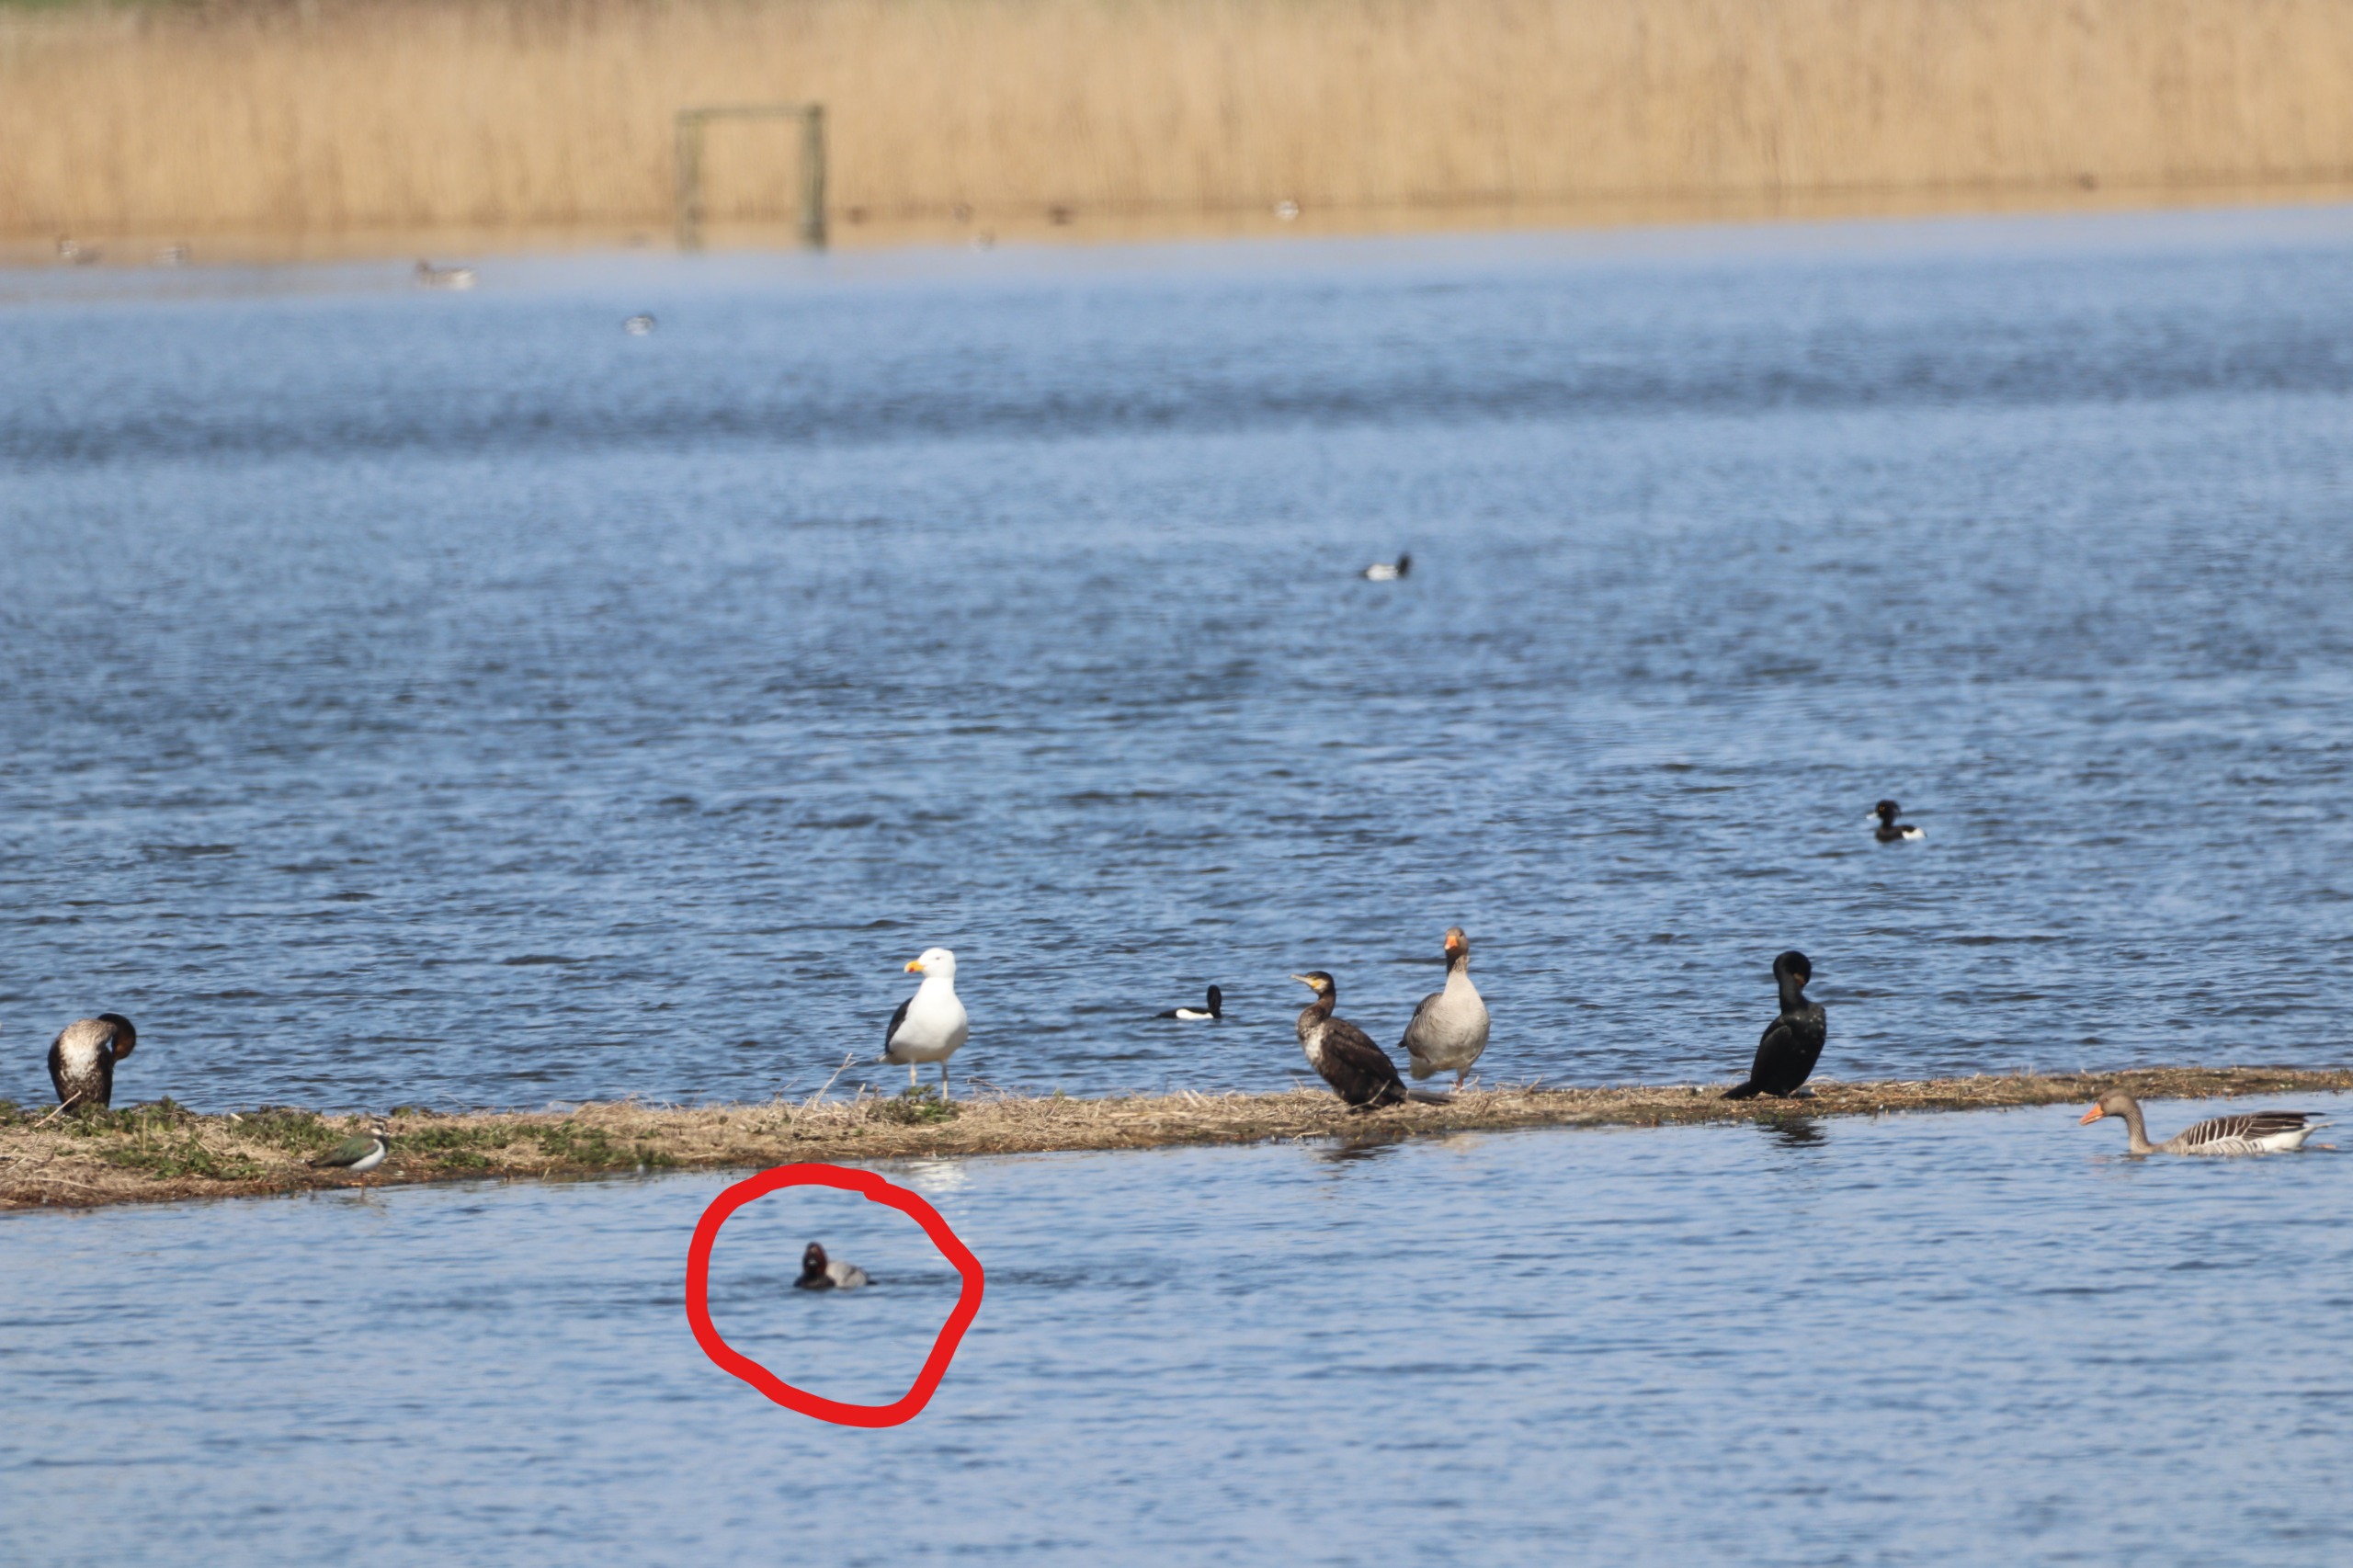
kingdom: Animalia
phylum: Chordata
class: Aves
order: Anseriformes
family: Anatidae
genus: Aythya
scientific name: Aythya ferina
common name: Taffeland
